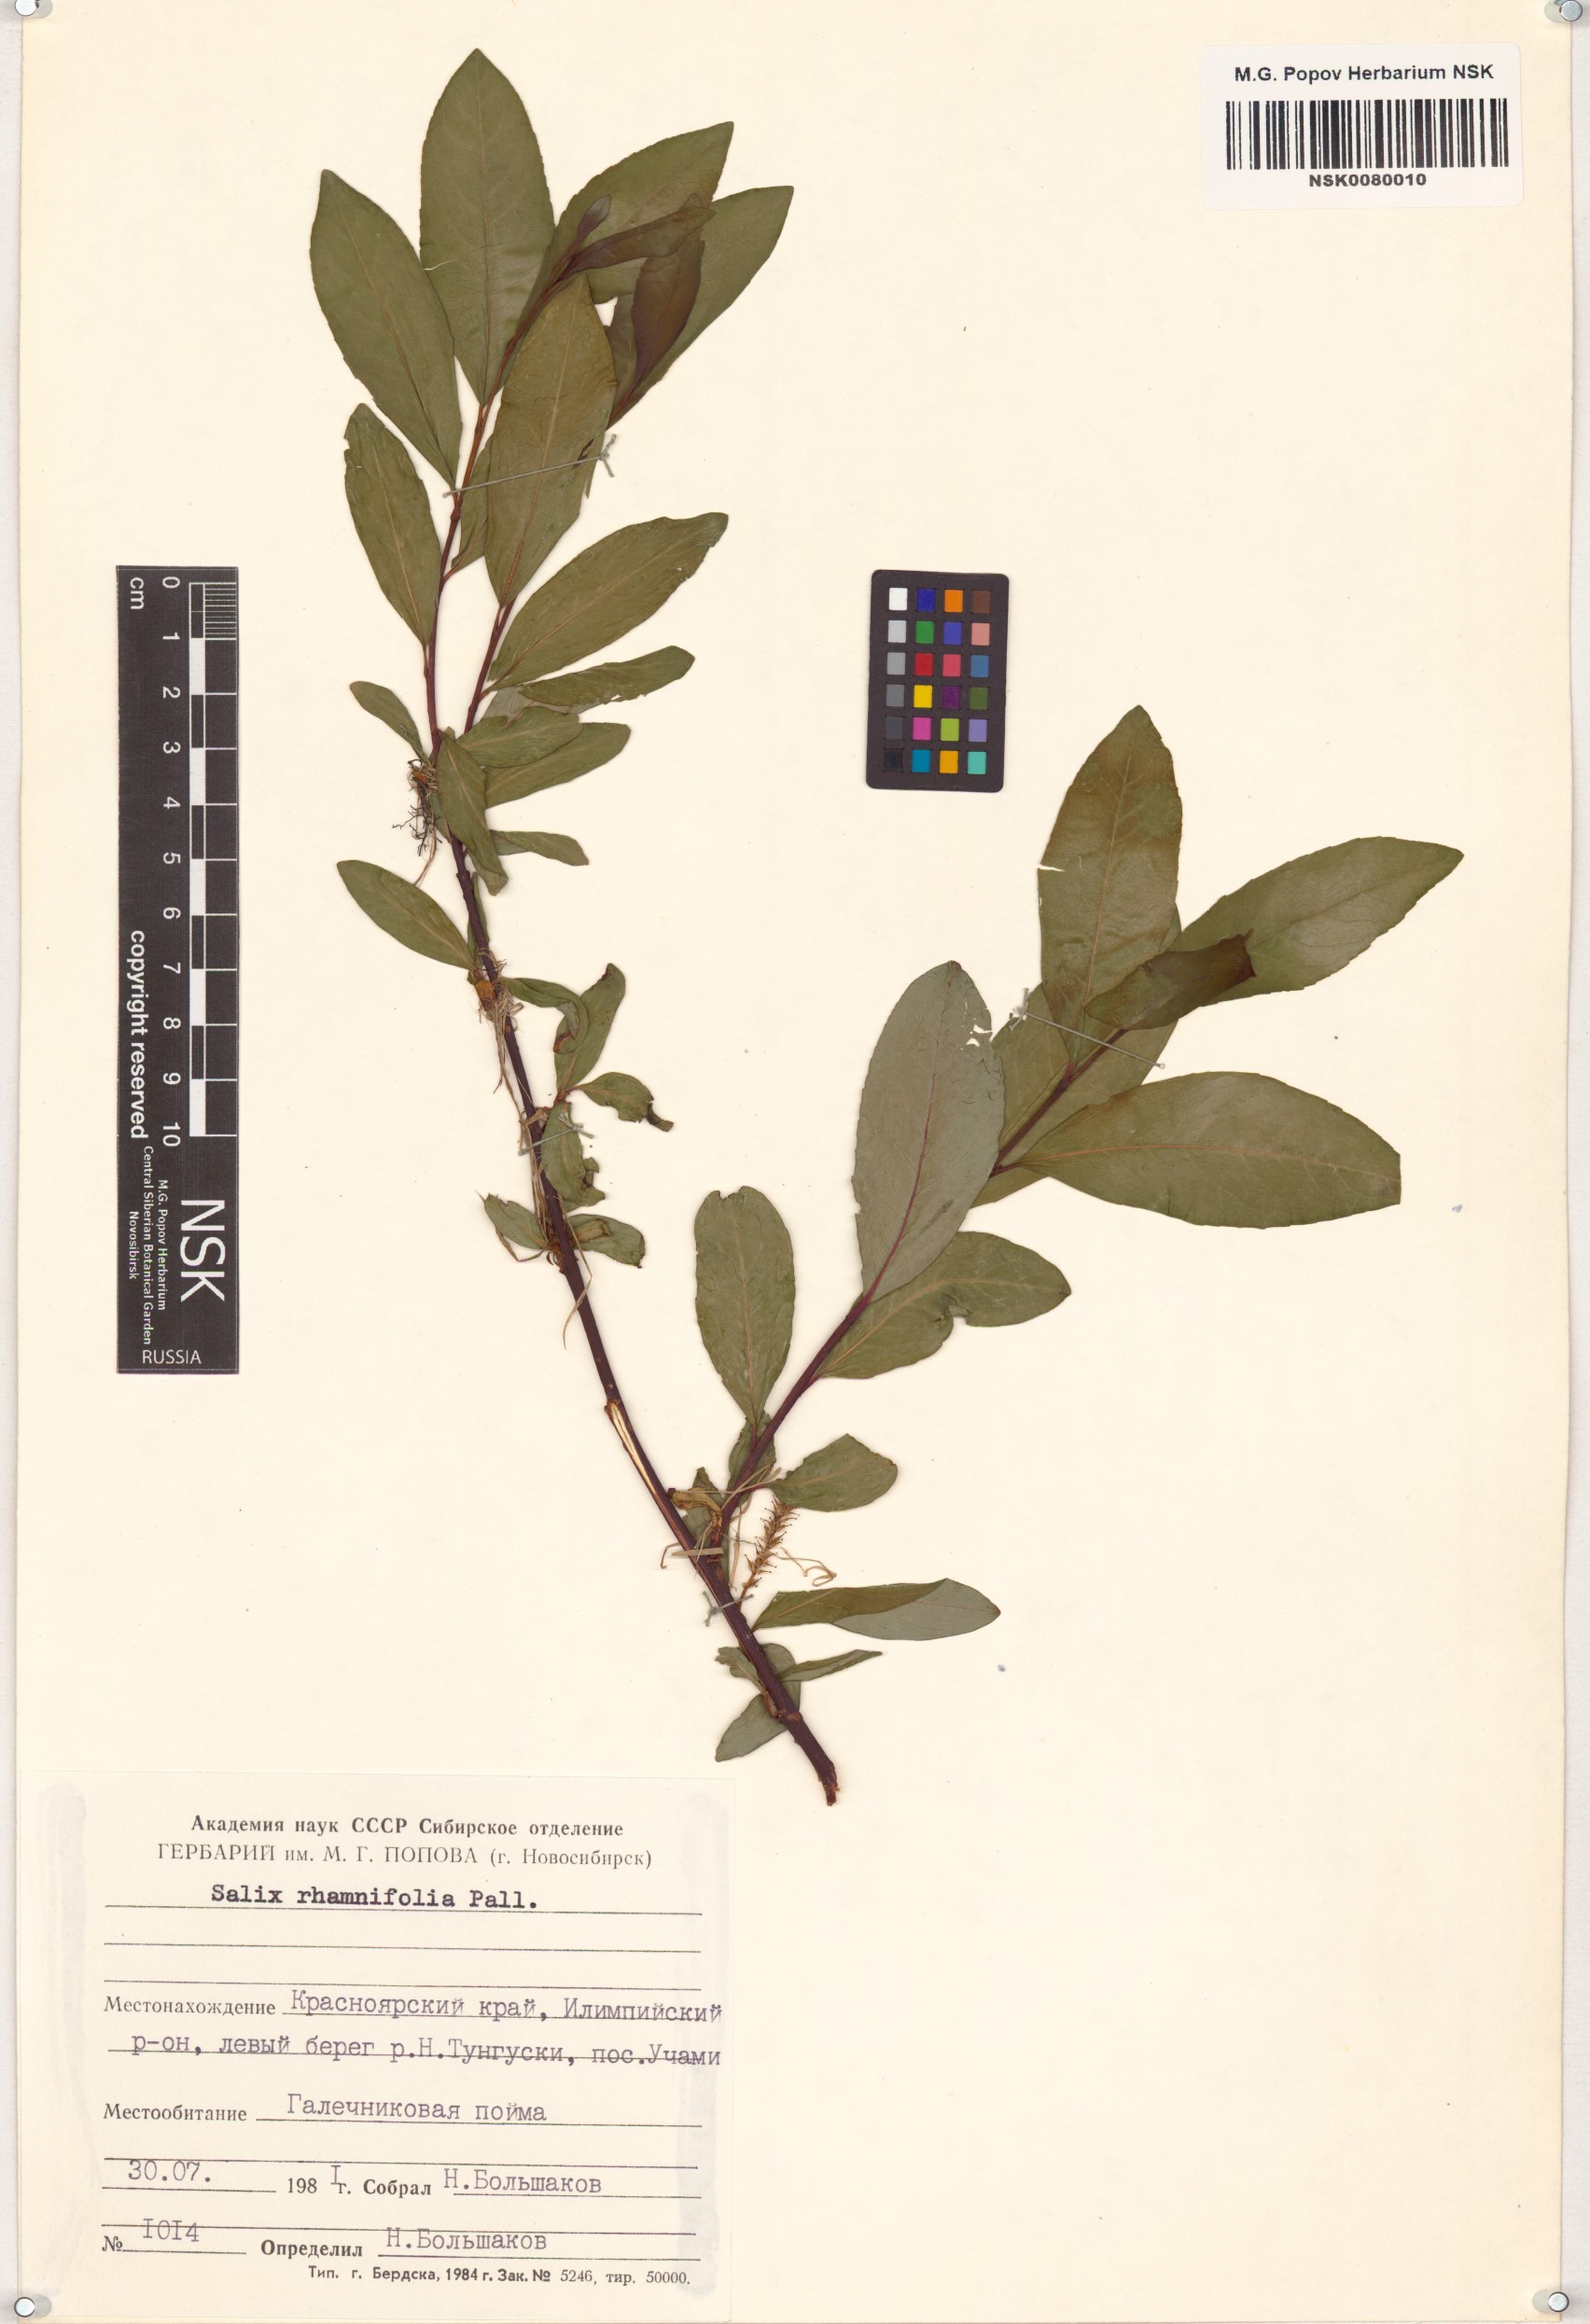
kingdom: Plantae
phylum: Tracheophyta
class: Magnoliopsida
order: Malpighiales
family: Salicaceae
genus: Salix
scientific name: Salix rhamnifolia
